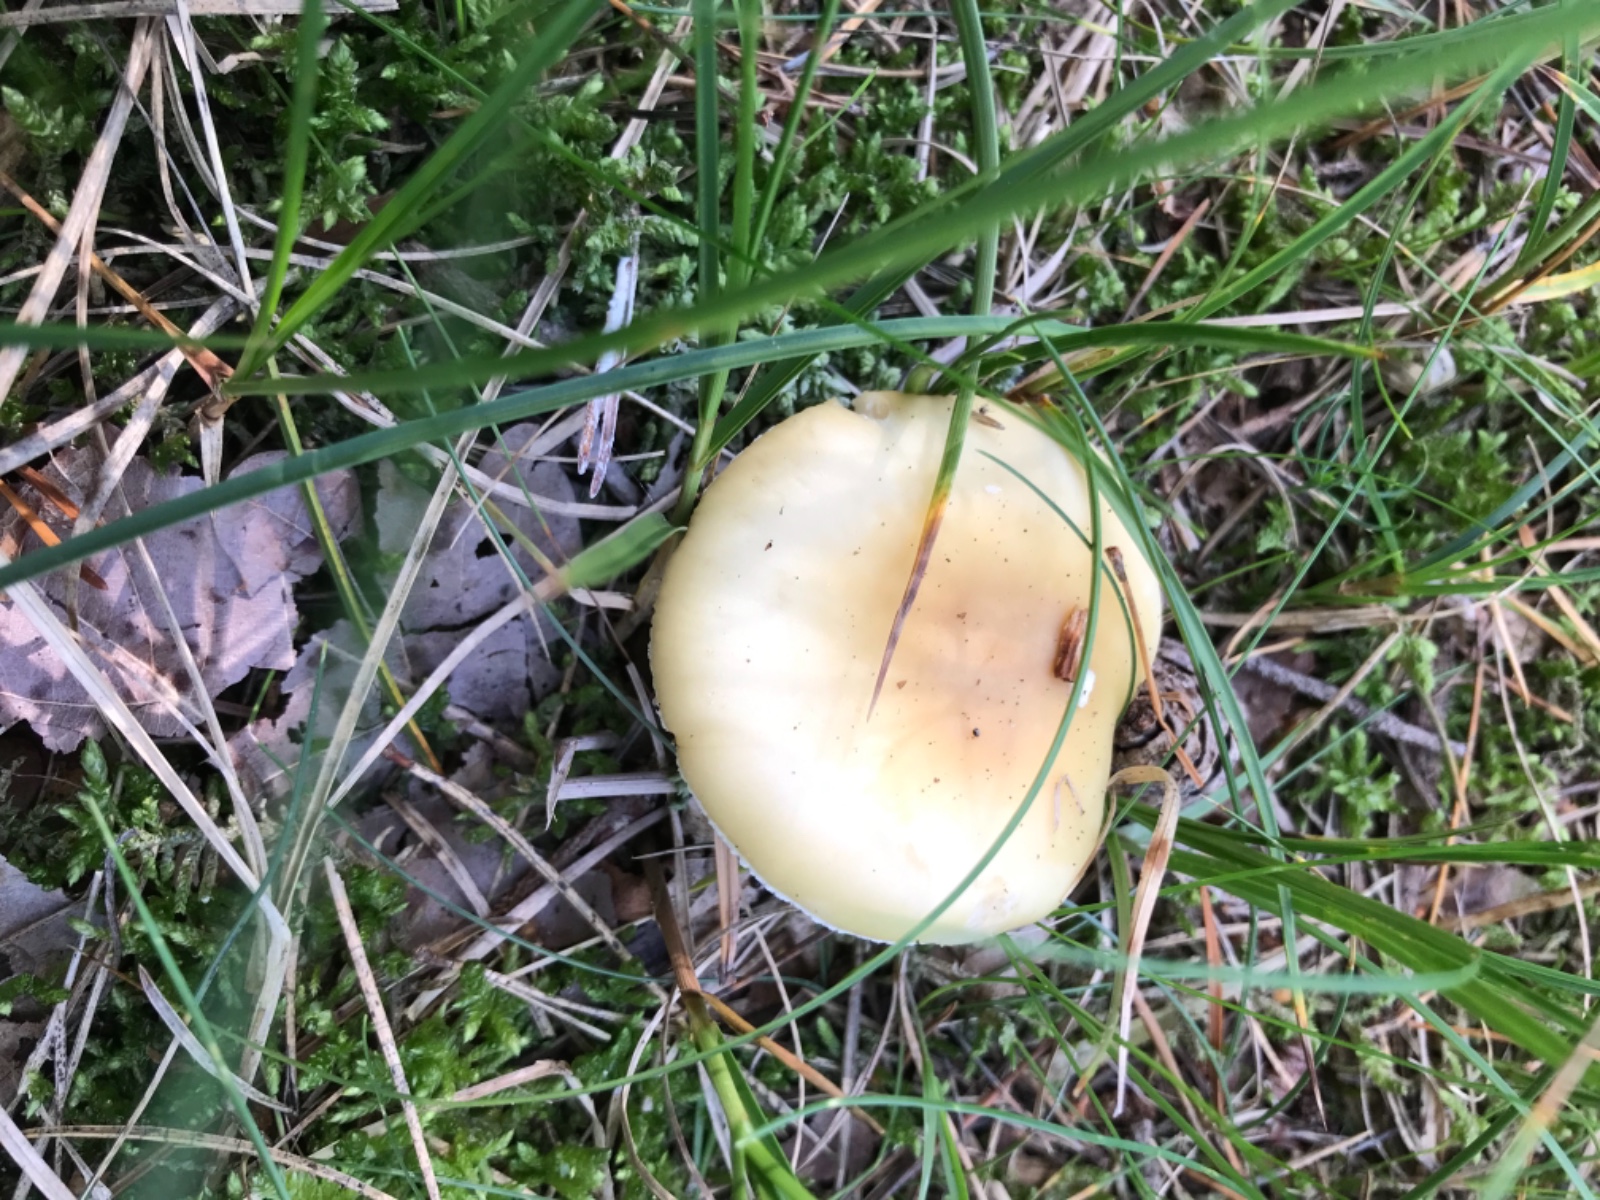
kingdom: Fungi
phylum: Basidiomycota
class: Agaricomycetes
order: Agaricales
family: Amanitaceae
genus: Amanita
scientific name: Amanita gemmata
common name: okkergul fluesvamp
